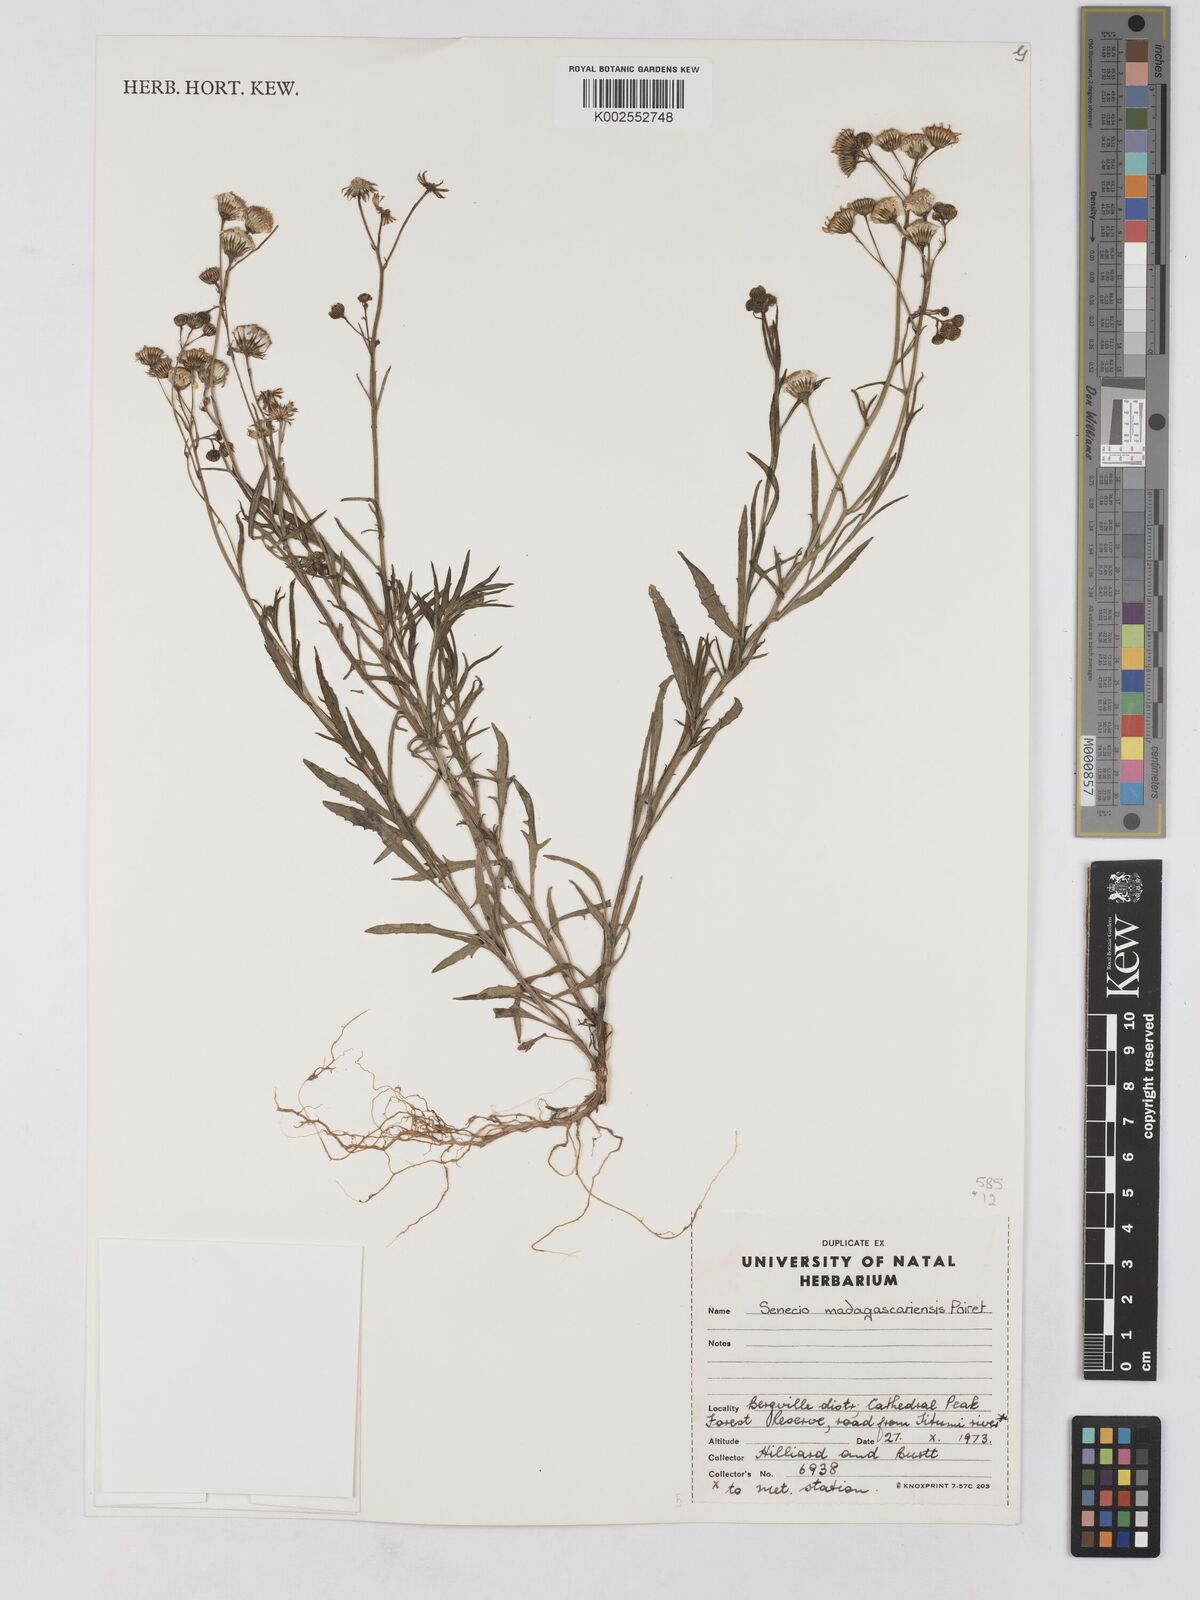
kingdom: Plantae
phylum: Tracheophyta
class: Magnoliopsida
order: Asterales
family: Asteraceae
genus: Senecio
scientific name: Senecio madagascariensis
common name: Madagascar ragwort
